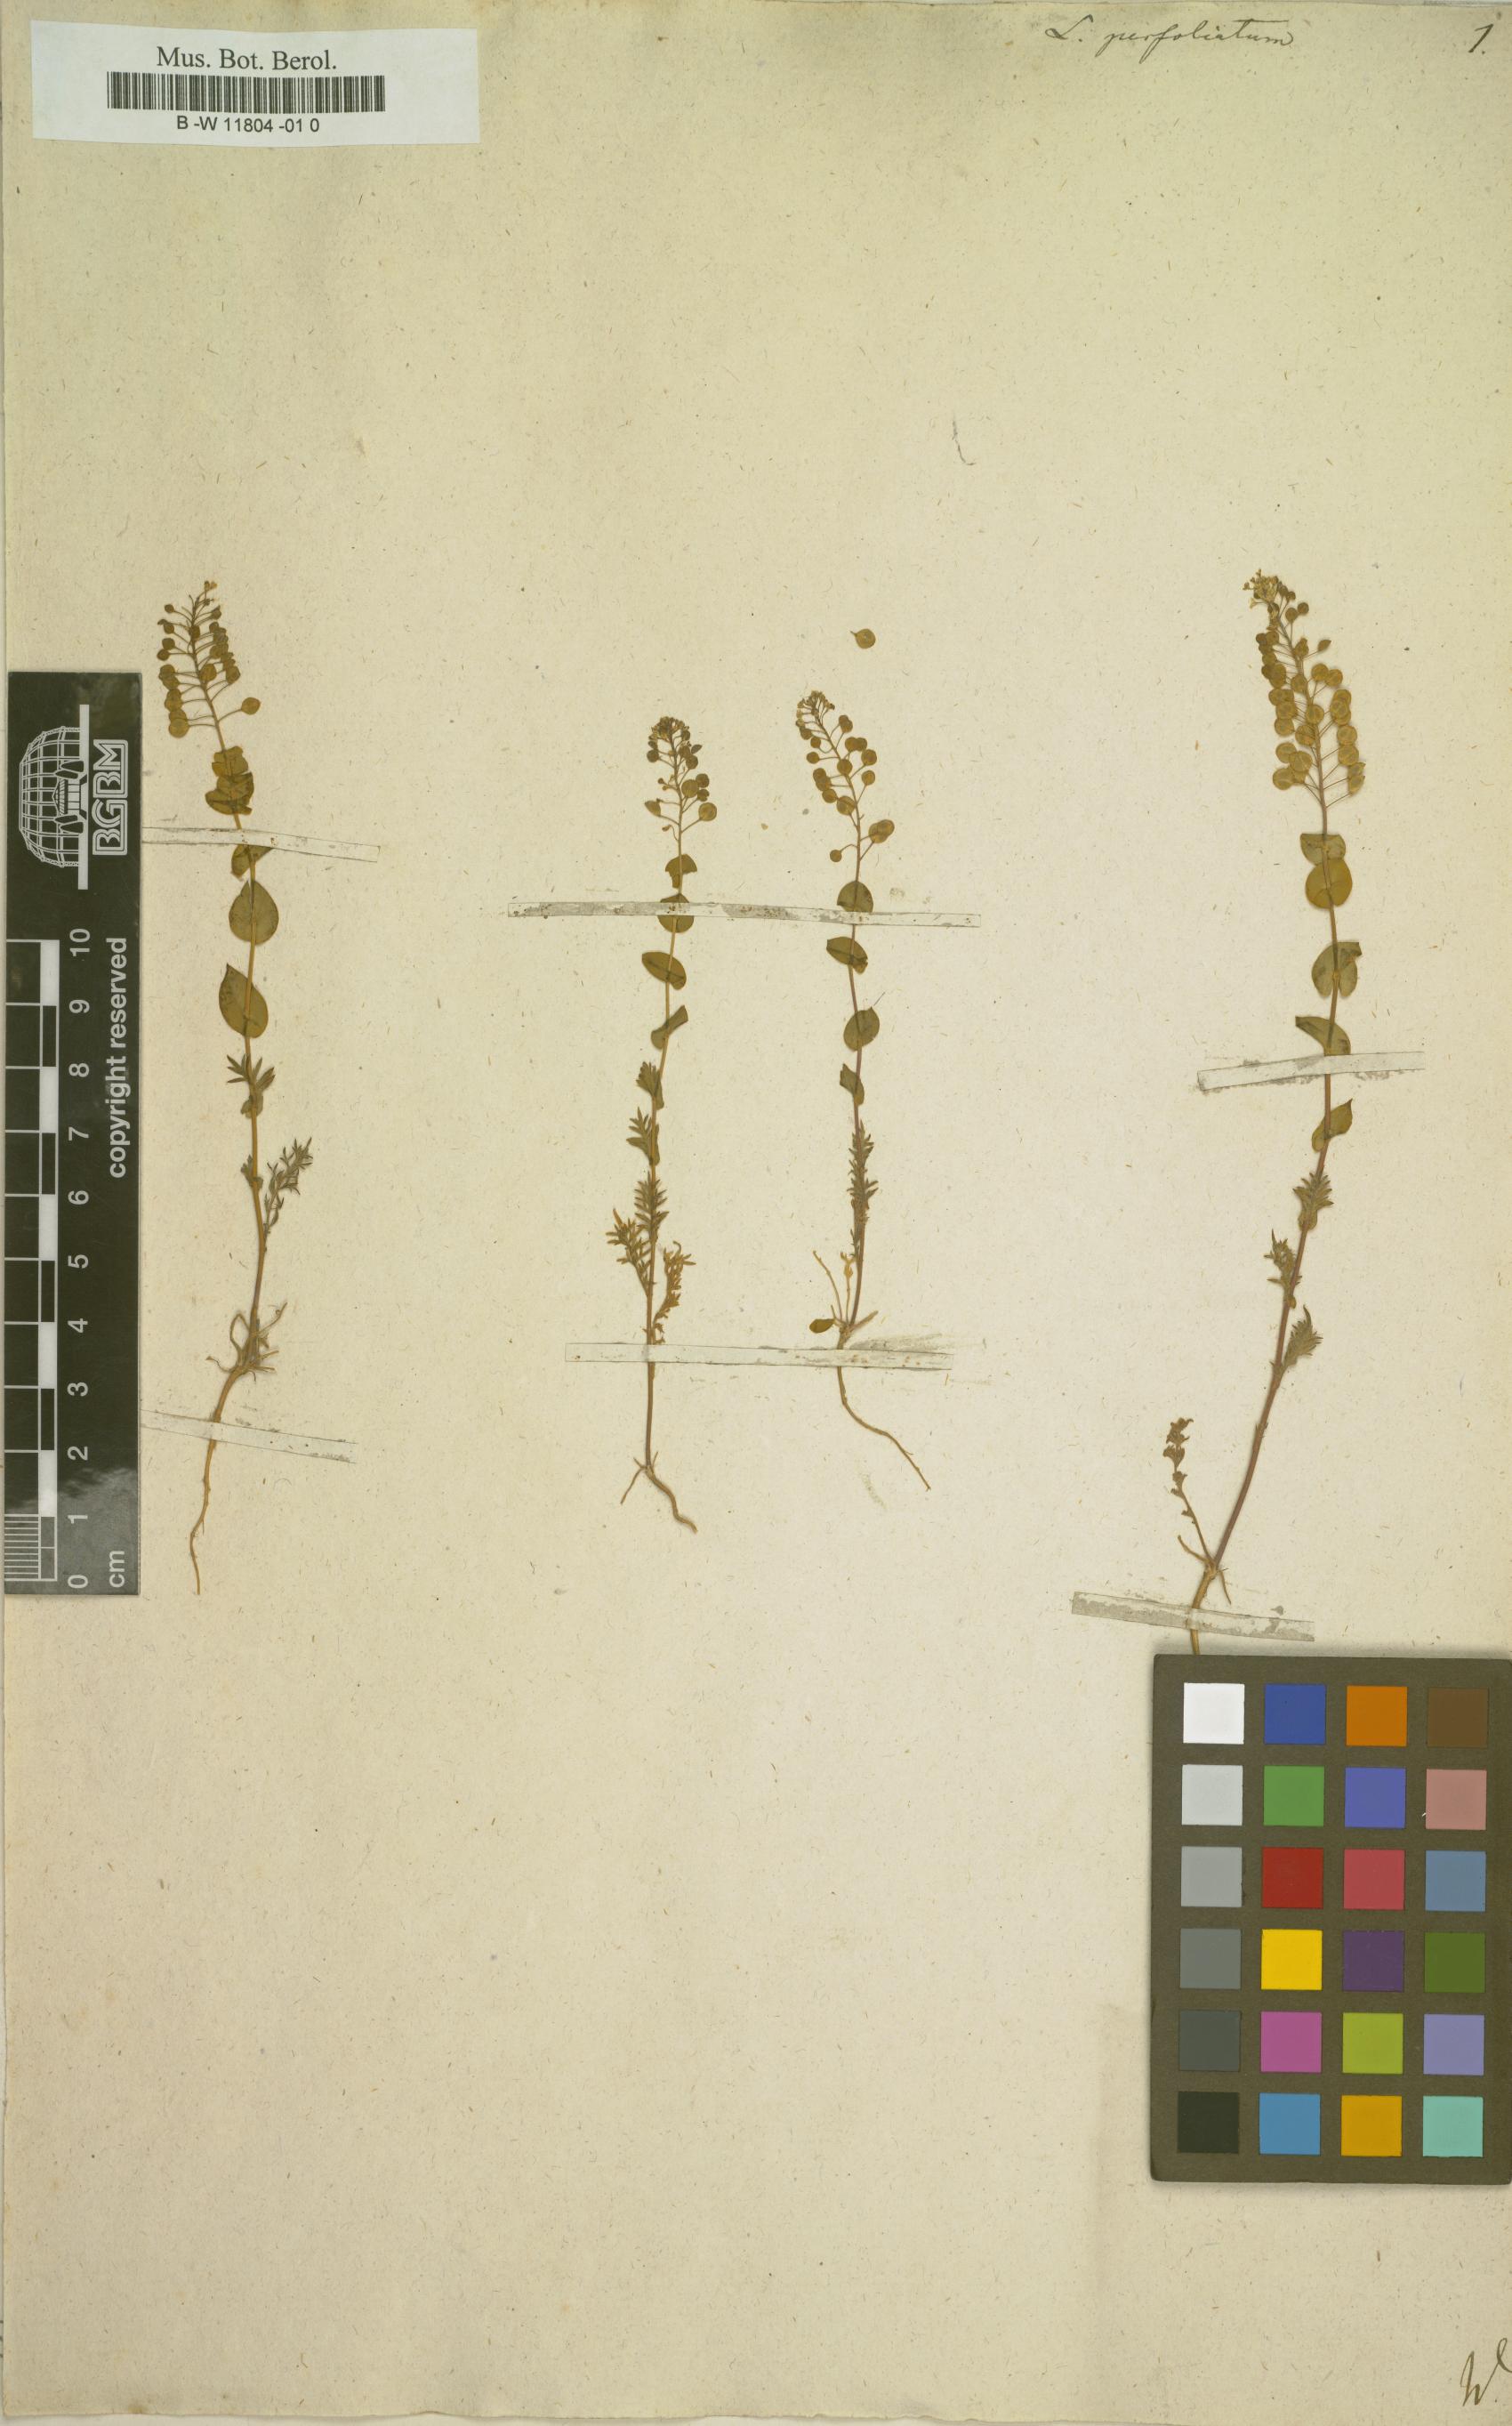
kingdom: Plantae
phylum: Tracheophyta
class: Magnoliopsida
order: Brassicales
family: Brassicaceae
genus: Lepidium
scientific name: Lepidium perfoliatum
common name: Perfoliate pepperwort
